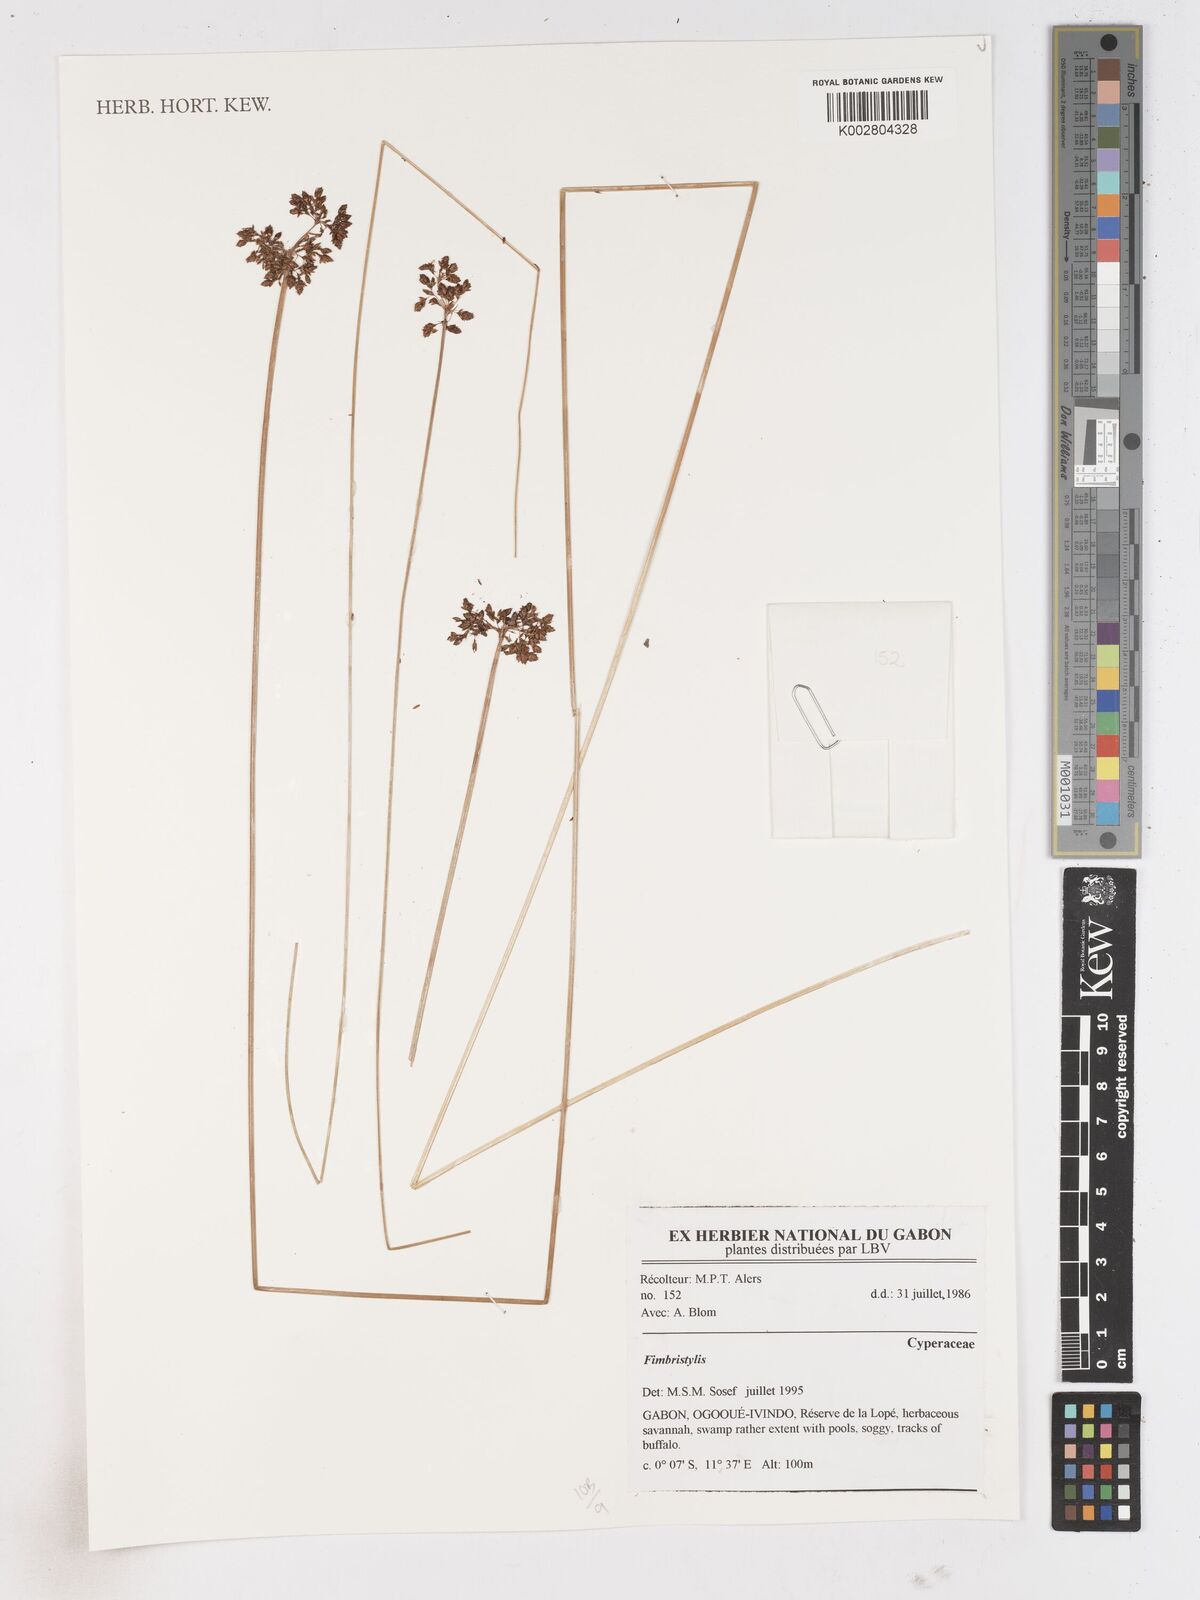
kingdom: Plantae
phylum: Tracheophyta
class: Liliopsida
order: Poales
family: Cyperaceae
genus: Fimbristylis
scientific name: Fimbristylis
